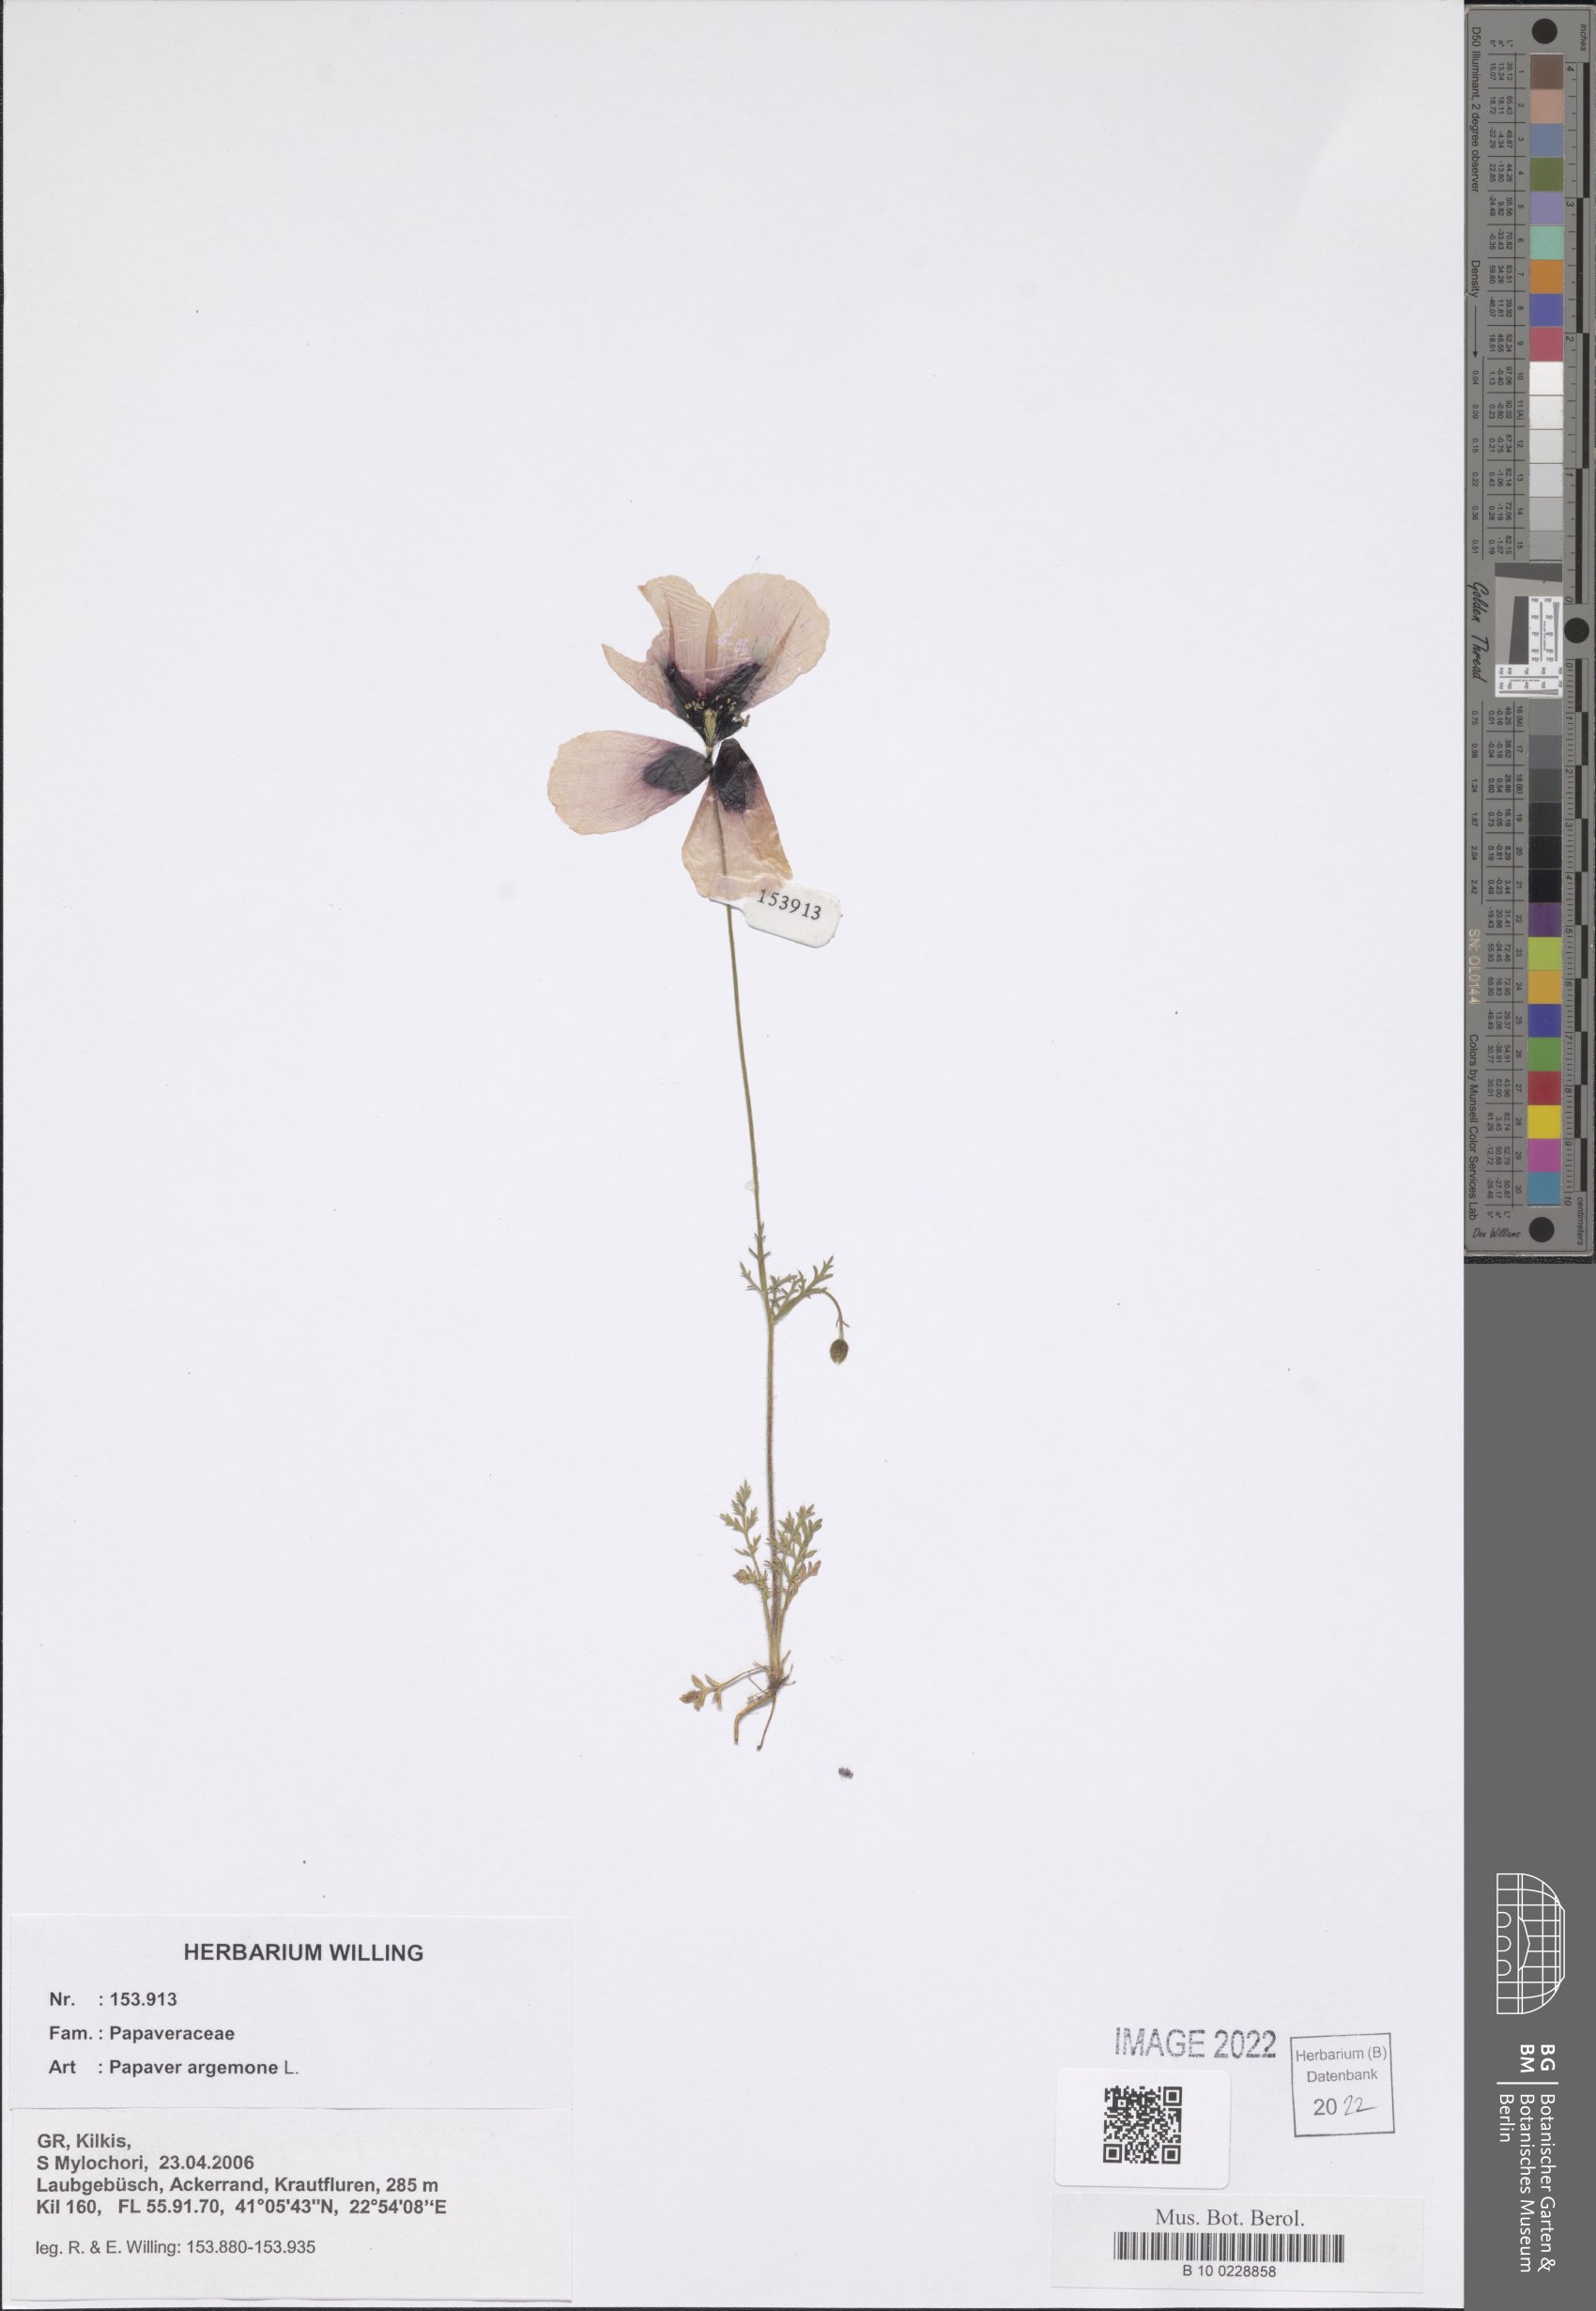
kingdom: Plantae
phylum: Tracheophyta
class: Magnoliopsida
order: Ranunculales
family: Papaveraceae
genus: Roemeria
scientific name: Roemeria argemone
